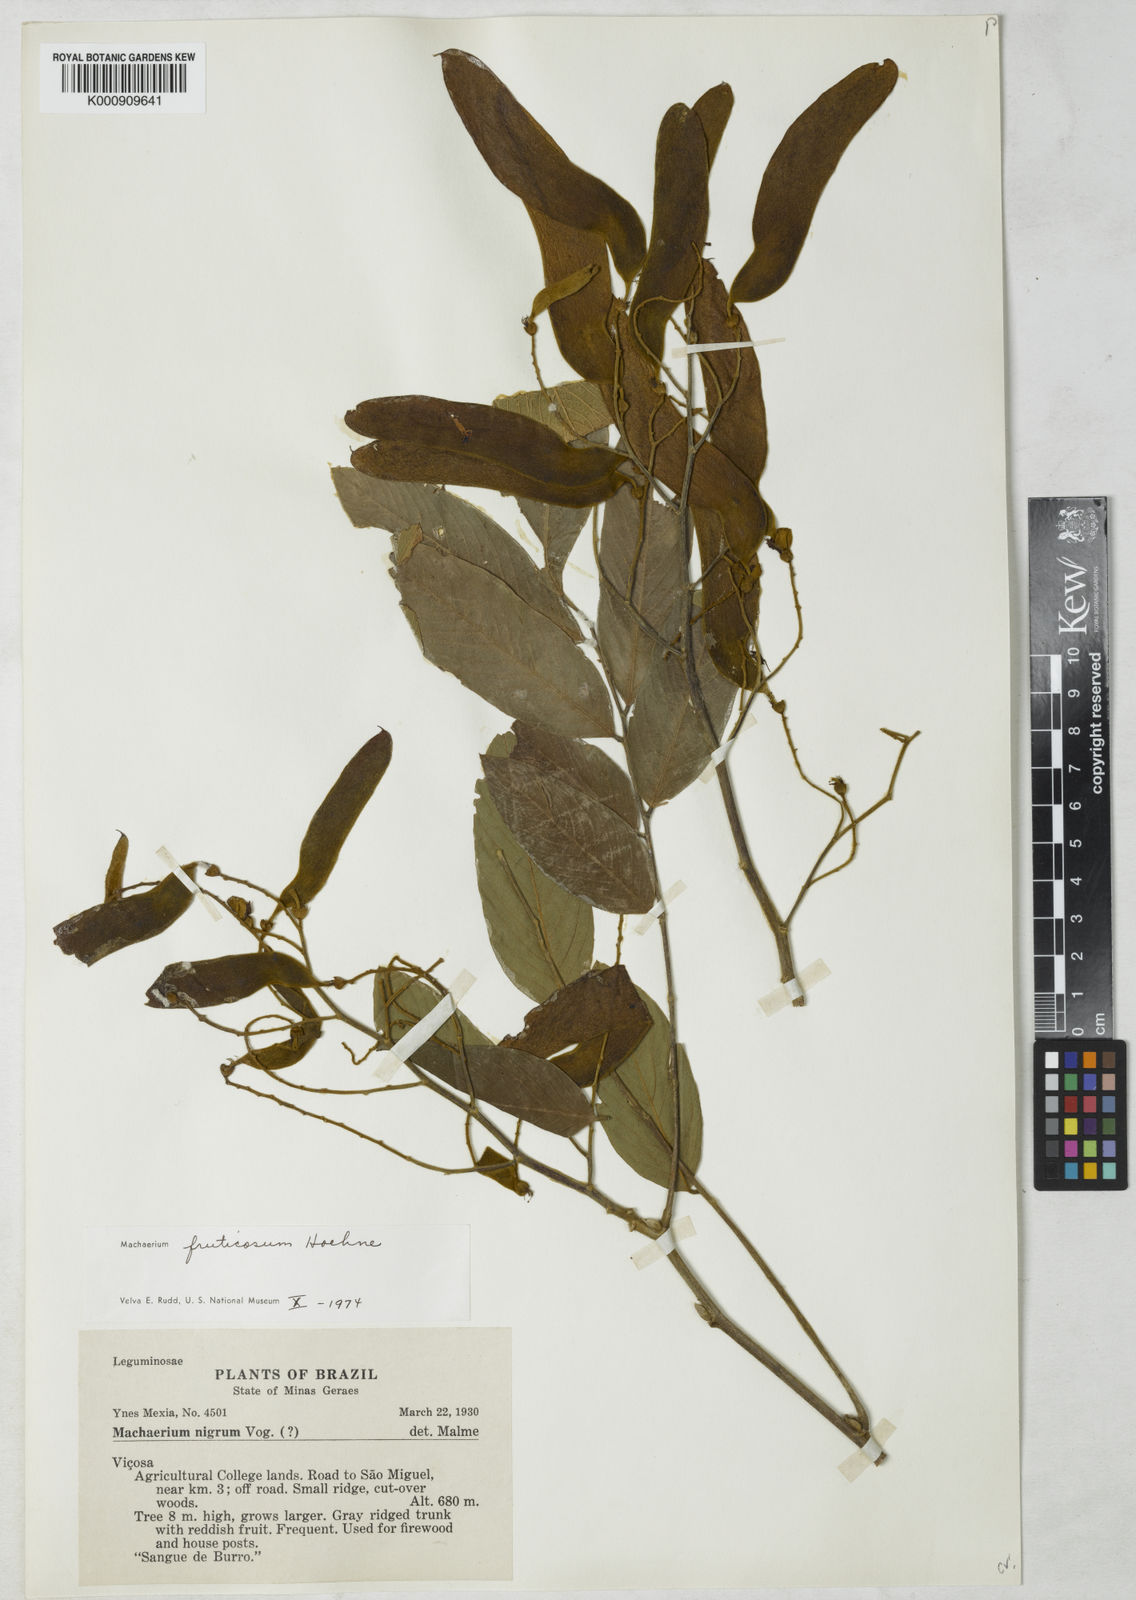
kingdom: Plantae
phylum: Tracheophyta
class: Magnoliopsida
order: Fabales
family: Fabaceae
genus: Machaerium
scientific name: Machaerium nigrum
